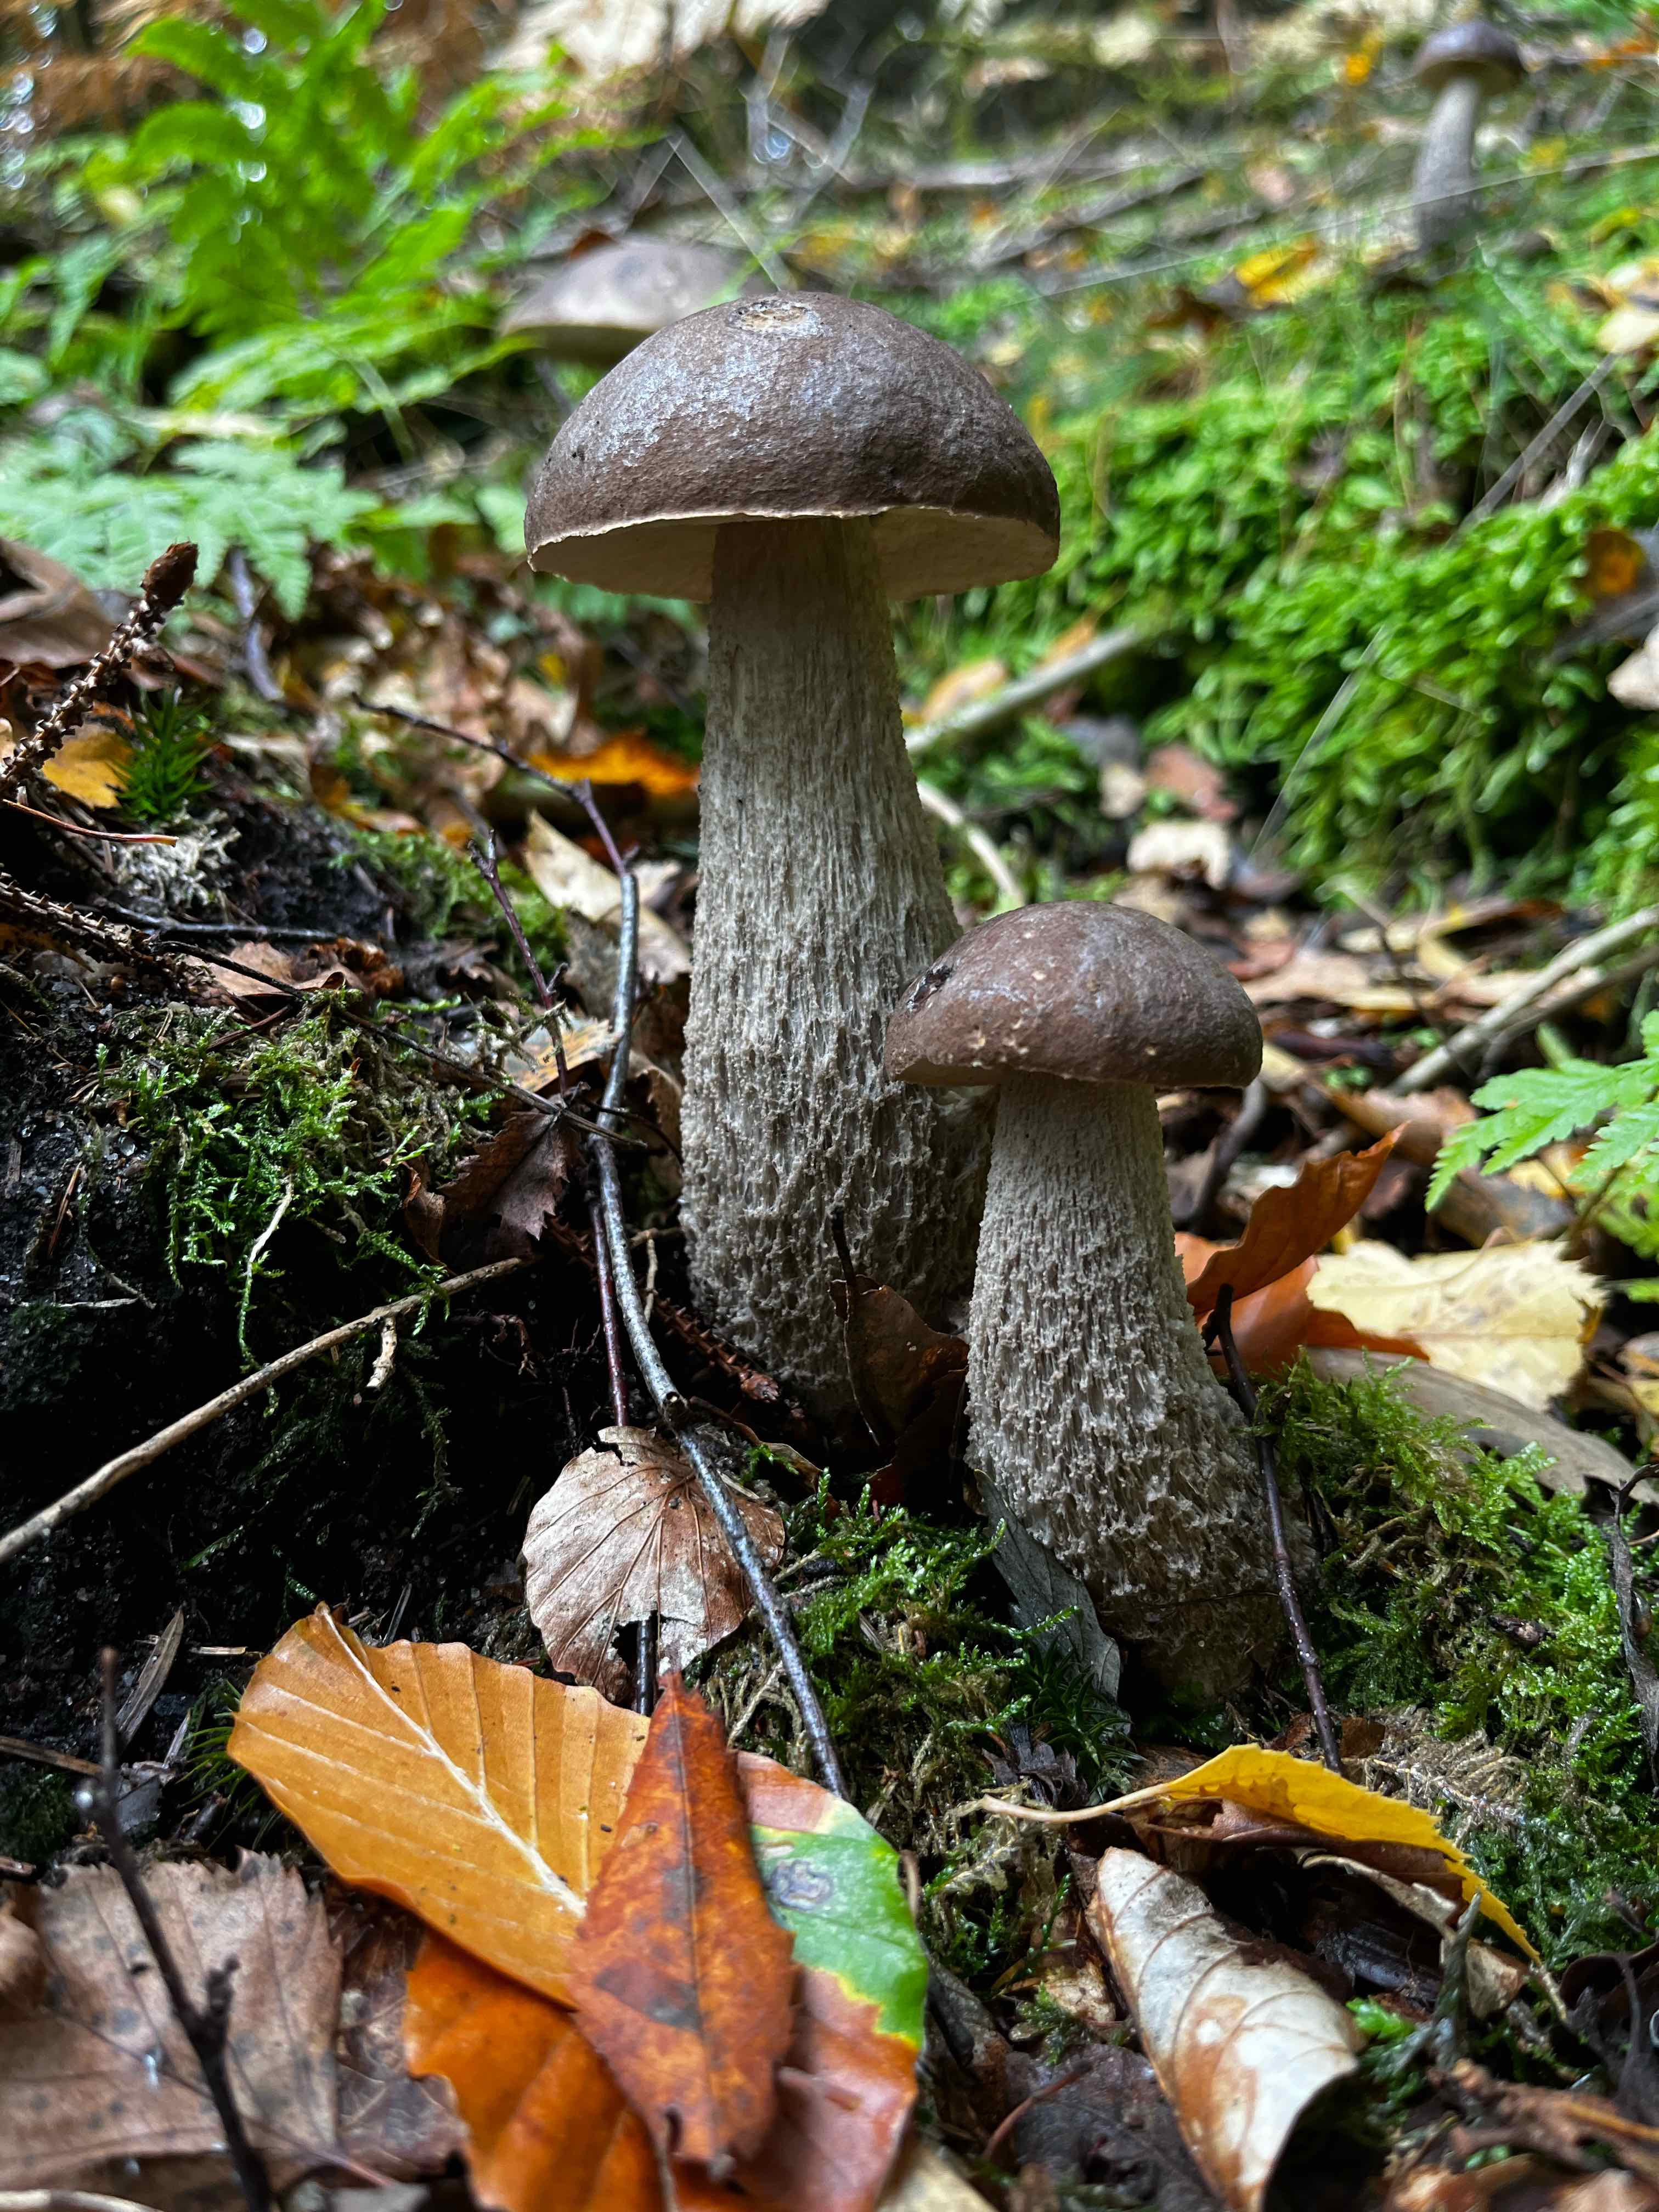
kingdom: Fungi
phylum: Basidiomycota
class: Agaricomycetes
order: Boletales
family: Boletaceae
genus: Leccinum
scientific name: Leccinum
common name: skælrørhat
